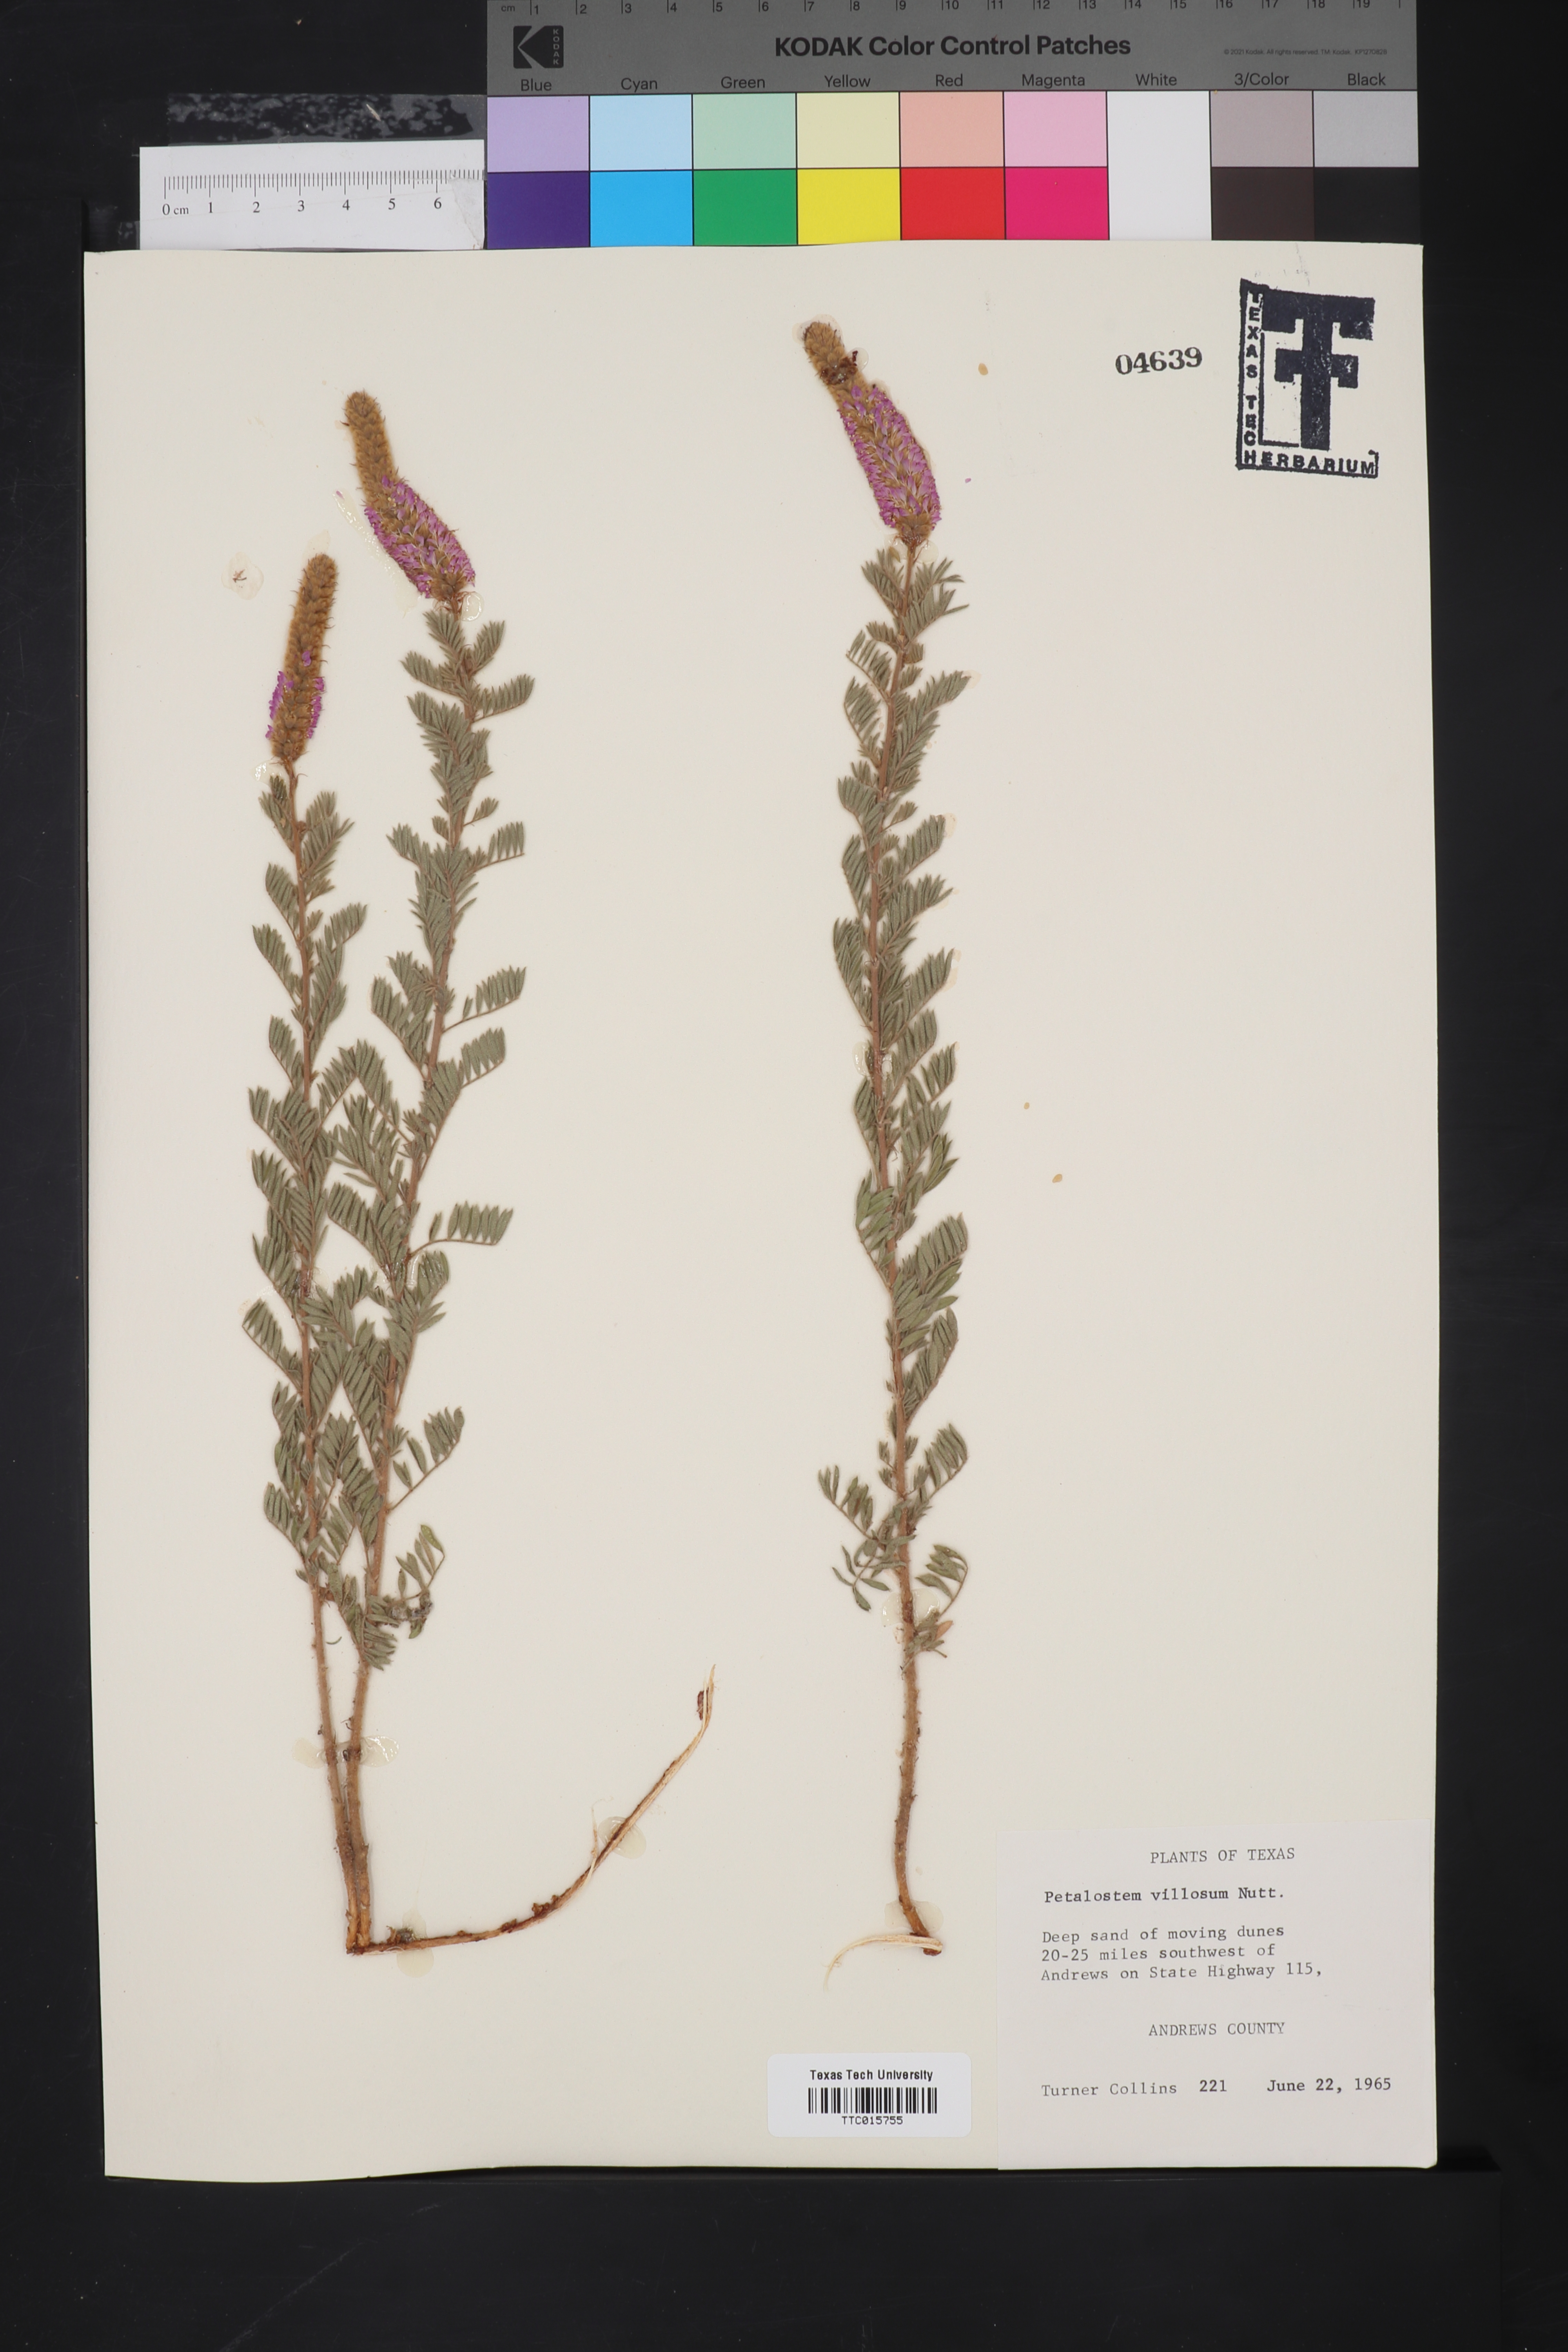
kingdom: Plantae
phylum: Tracheophyta
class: Magnoliopsida
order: Fabales
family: Fabaceae
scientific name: Fabaceae
